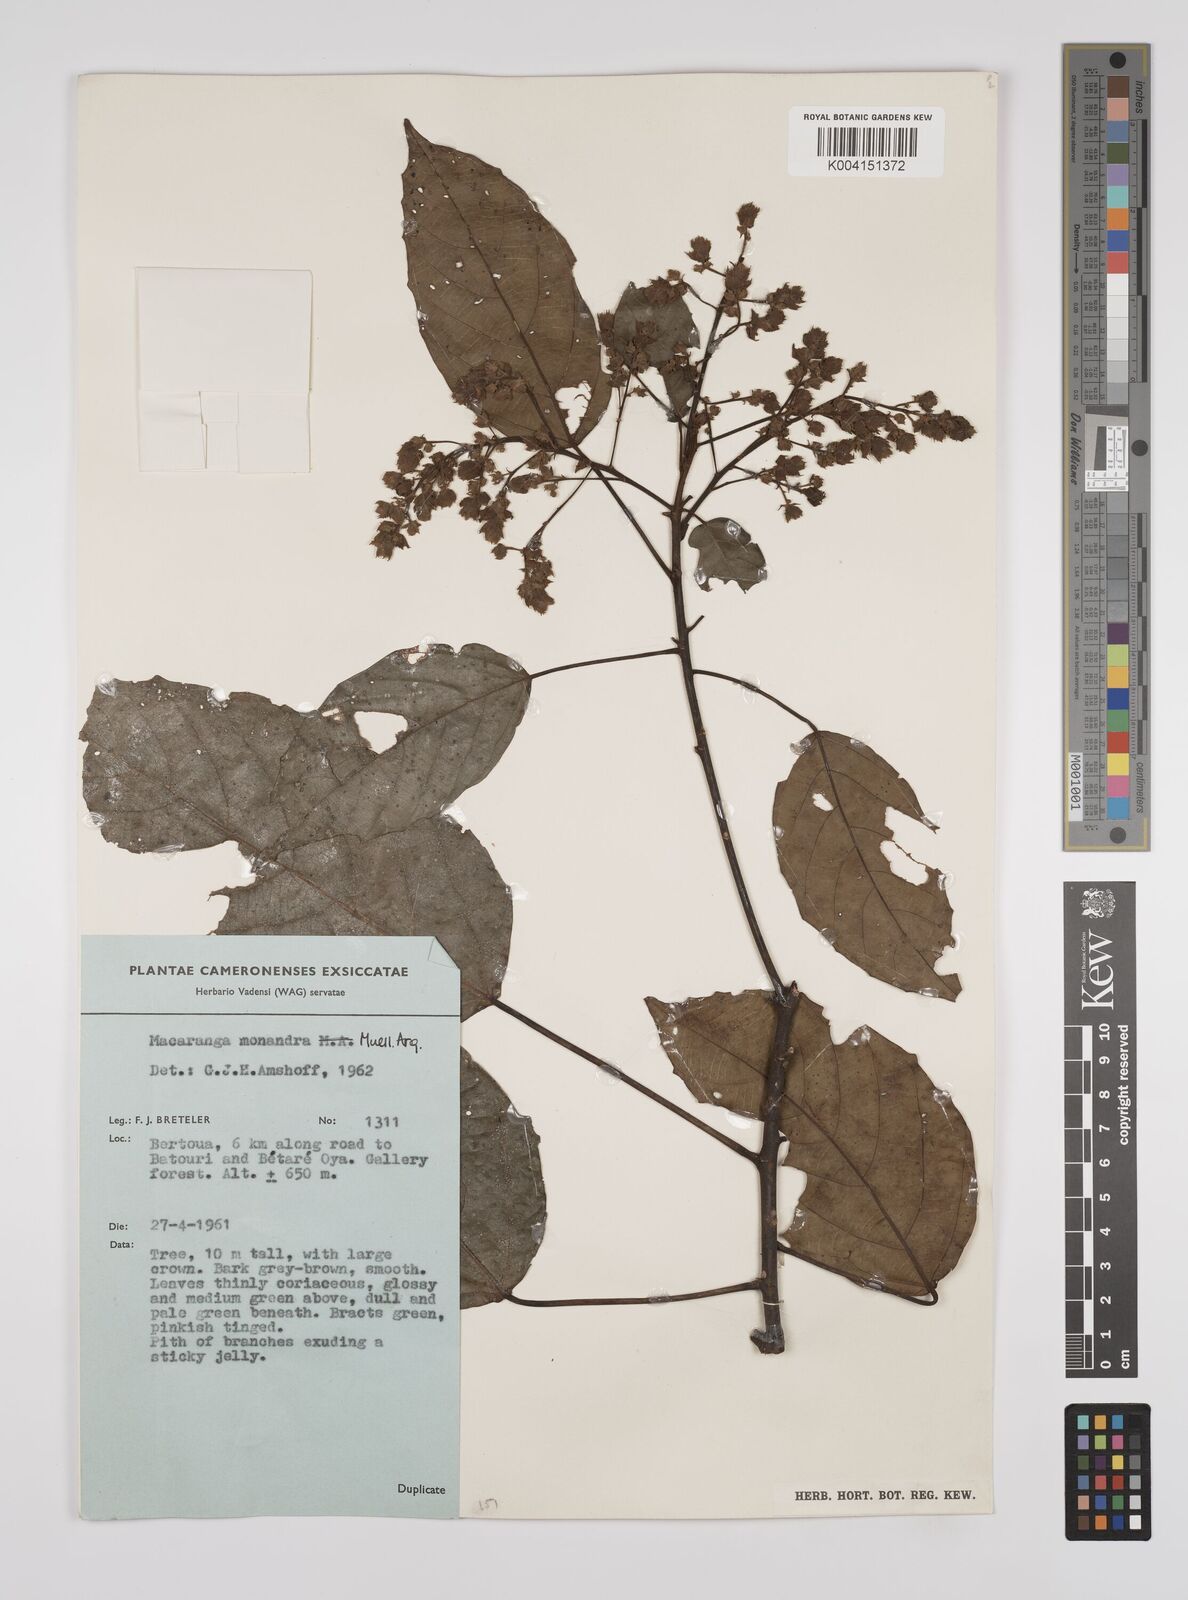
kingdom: Plantae
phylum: Tracheophyta
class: Magnoliopsida
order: Malpighiales
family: Euphorbiaceae
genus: Macaranga
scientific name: Macaranga monandra
